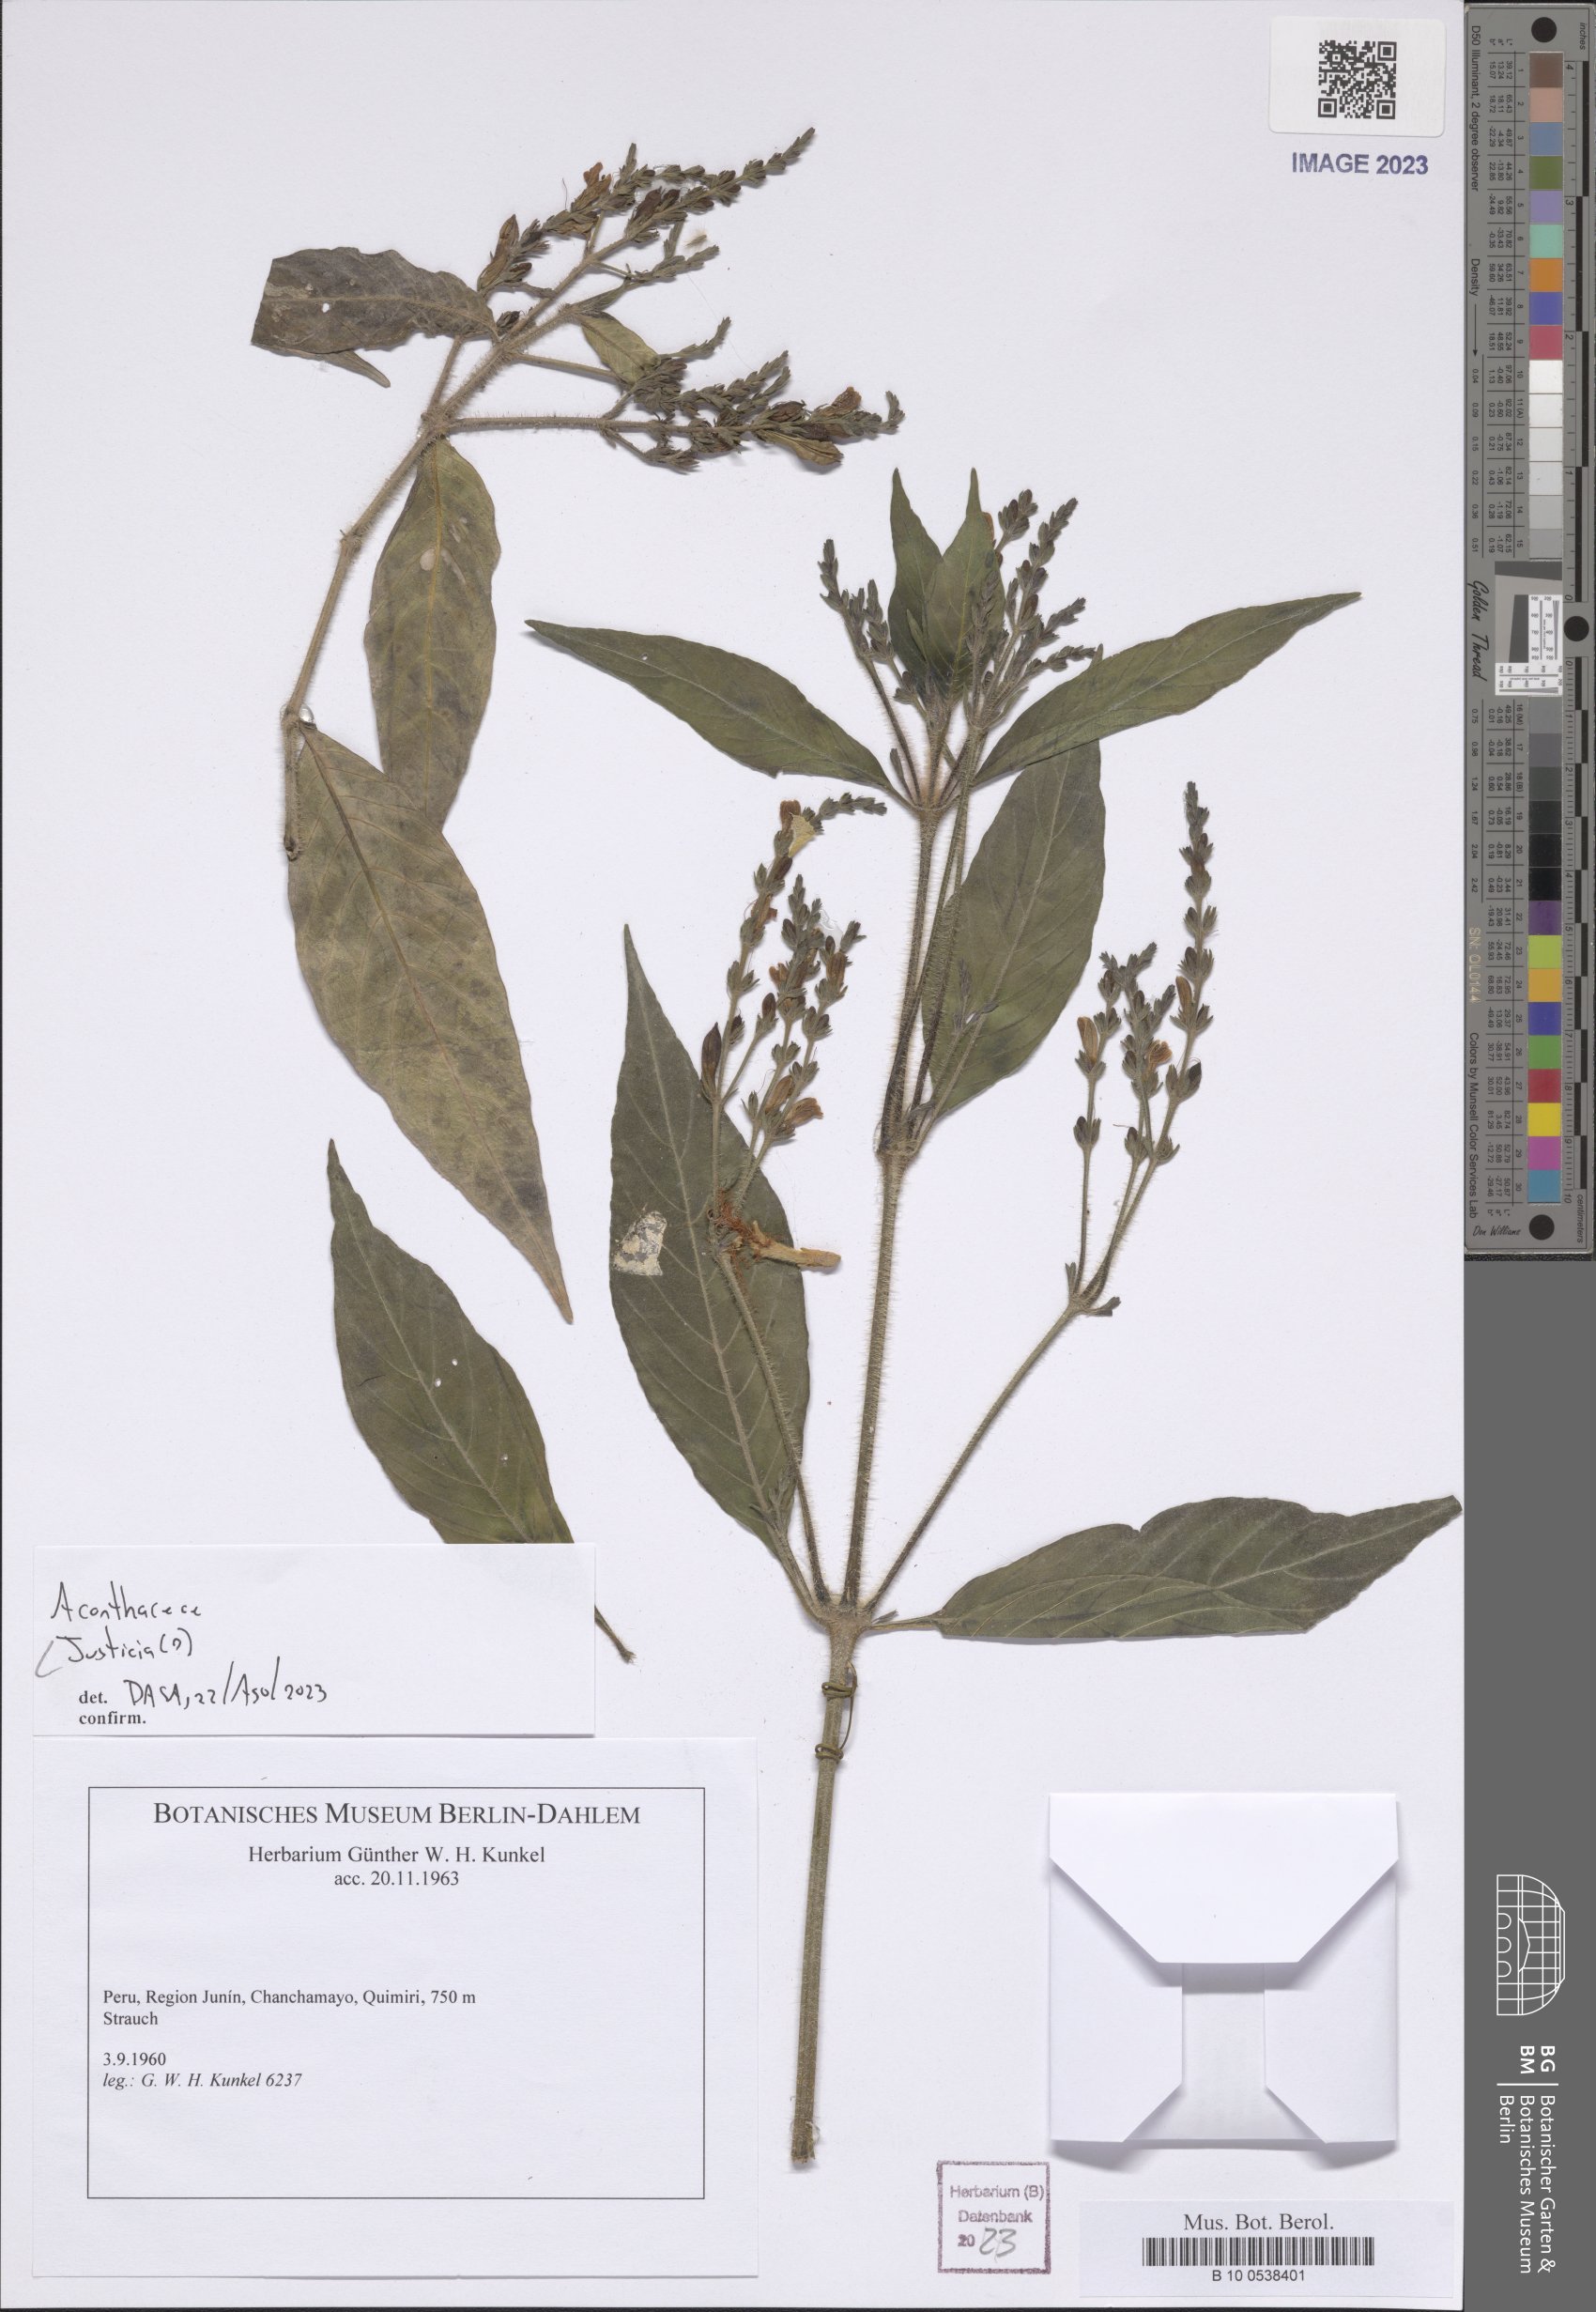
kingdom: Plantae
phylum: Tracheophyta
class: Magnoliopsida
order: Lamiales
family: Acanthaceae
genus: Justicia
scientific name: Justicia
